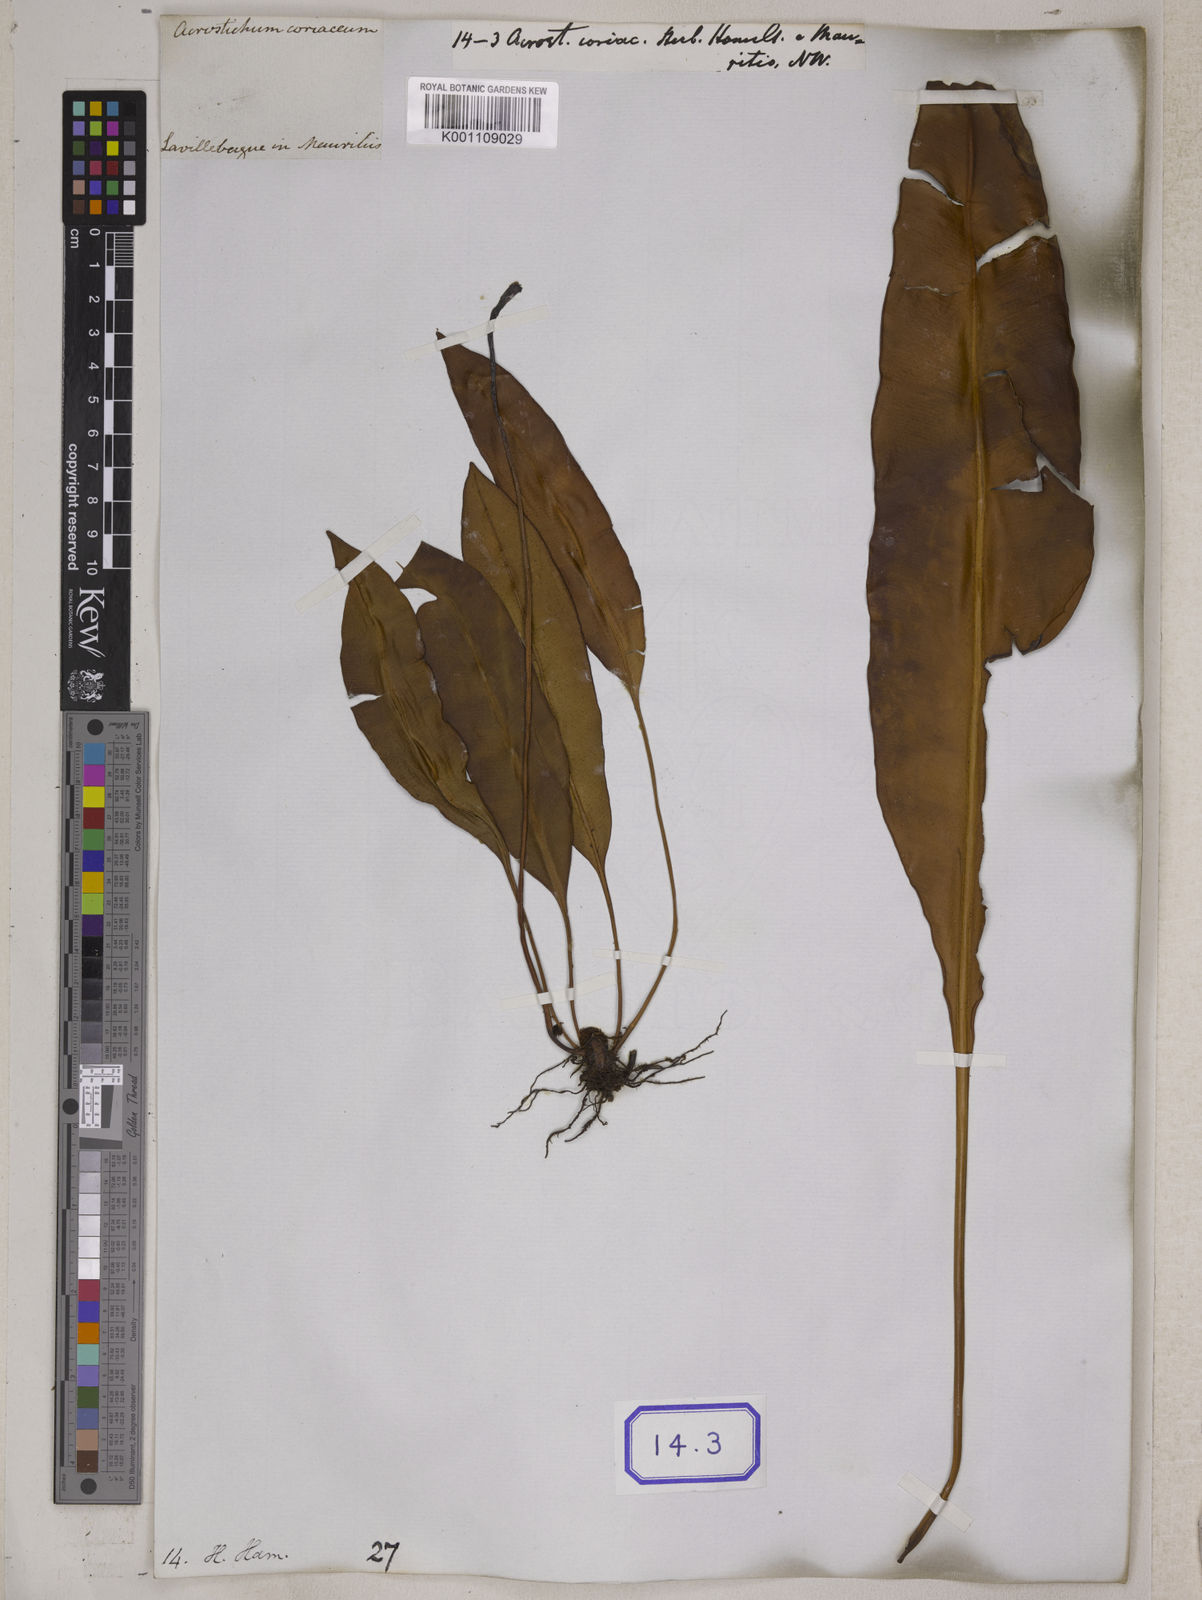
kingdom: Plantae
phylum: Tracheophyta
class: Polypodiopsida
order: Polypodiales
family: Dryopteridaceae
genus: Elaphoglossum
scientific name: Elaphoglossum macropodium
